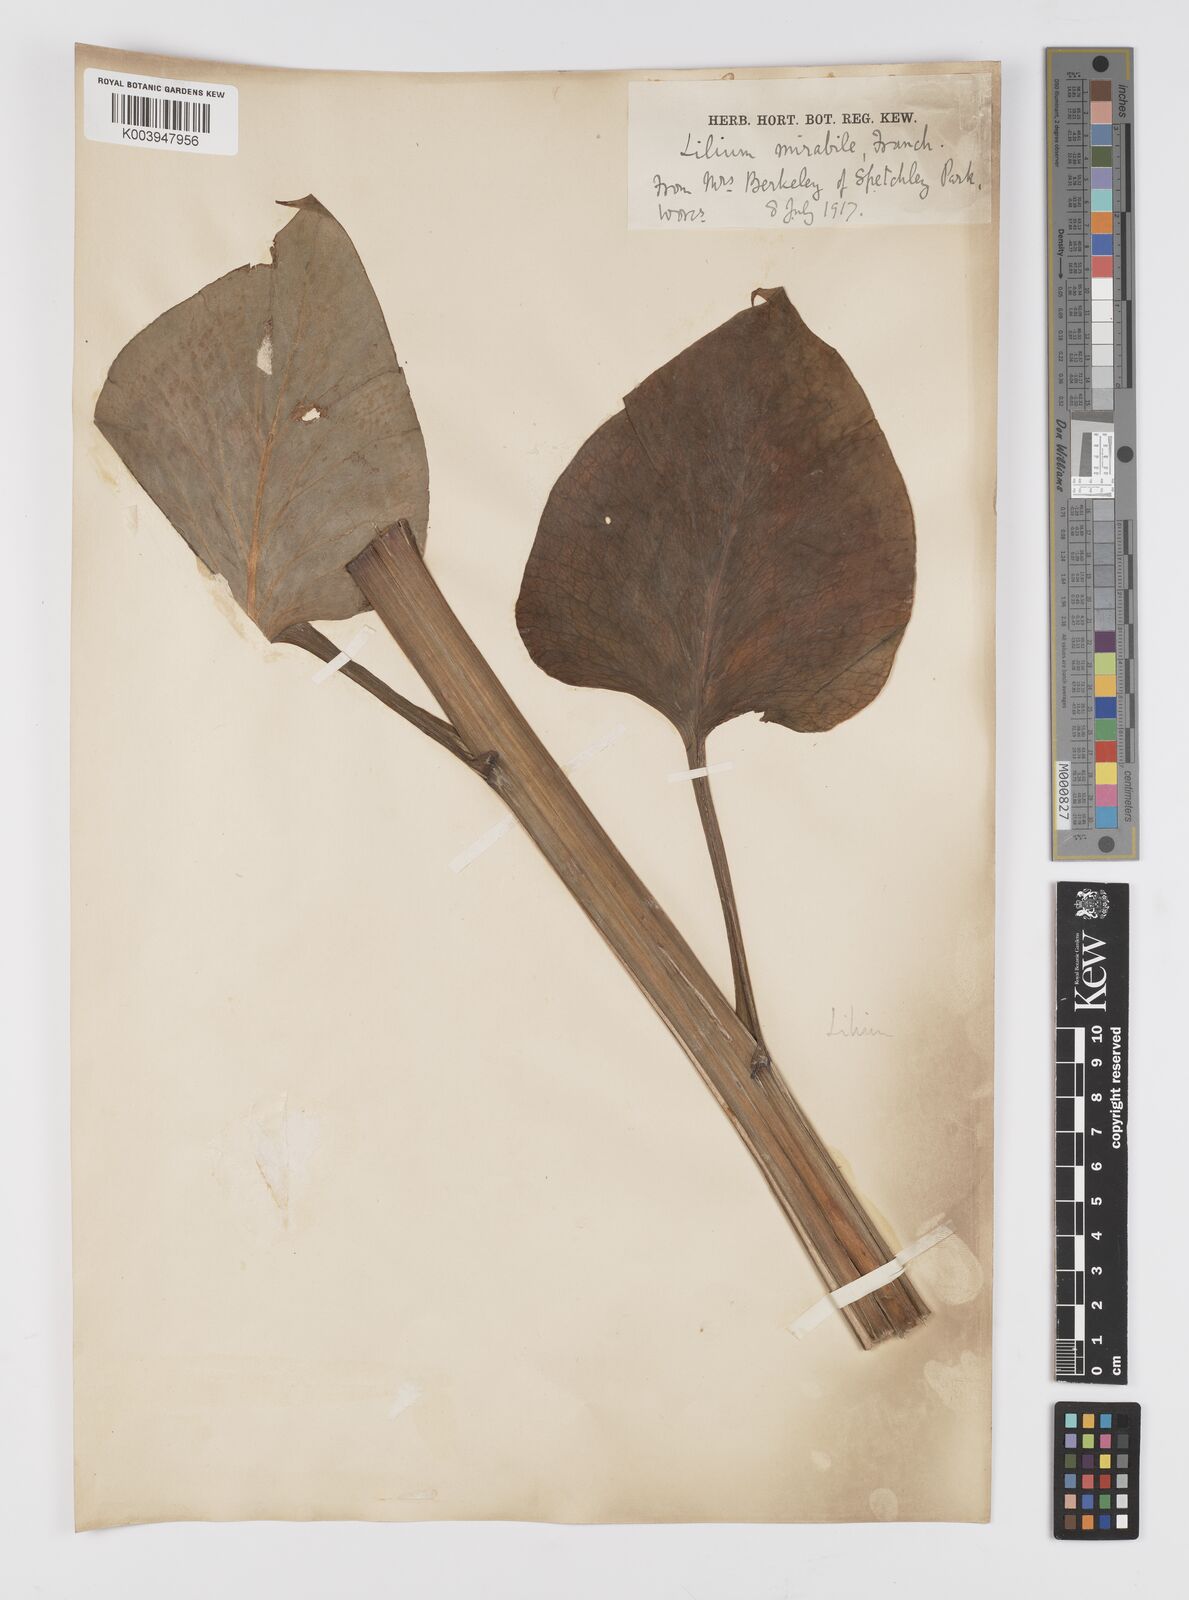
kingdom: Plantae
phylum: Tracheophyta
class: Liliopsida
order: Liliales
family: Liliaceae
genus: Cardiocrinum
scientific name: Cardiocrinum giganteum
